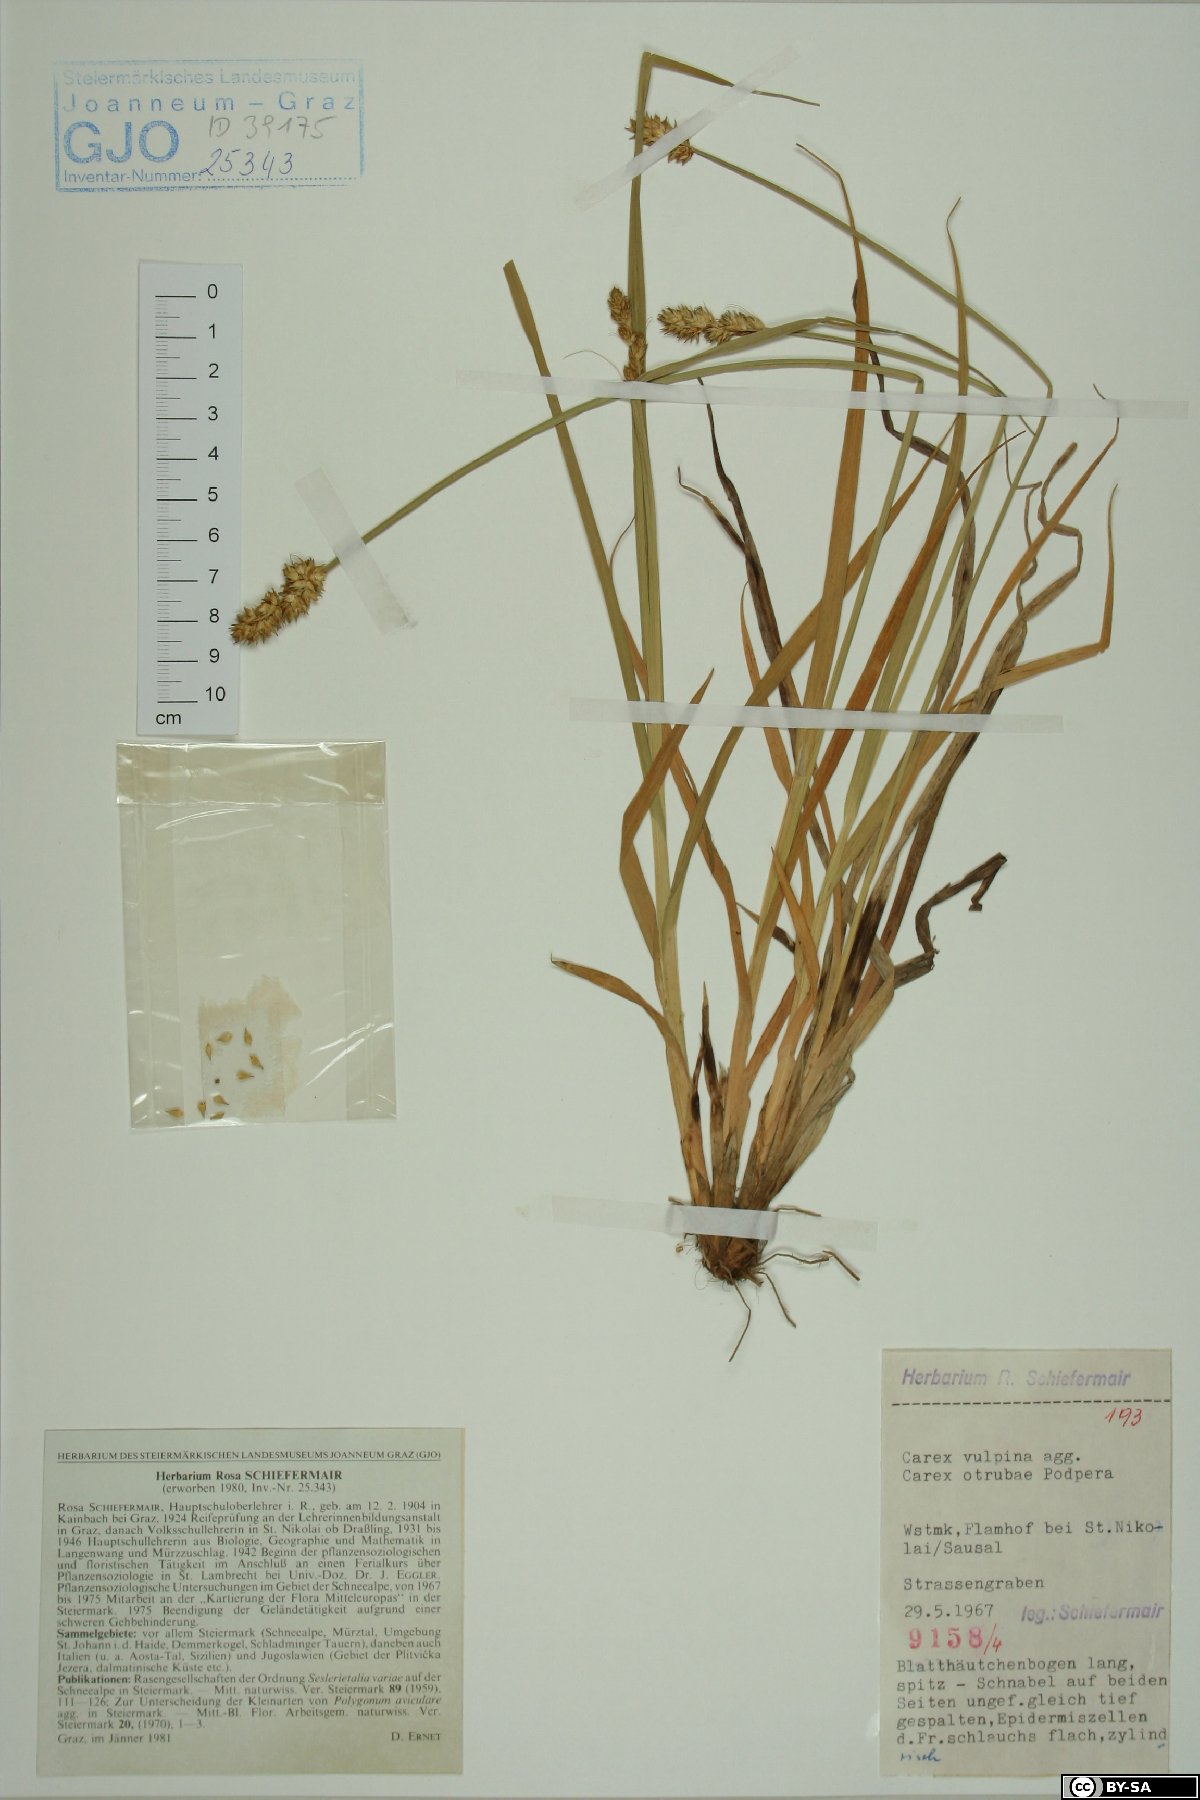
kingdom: Plantae
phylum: Tracheophyta
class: Liliopsida
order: Poales
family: Cyperaceae
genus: Carex
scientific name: Carex otrubae
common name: False fox-sedge
